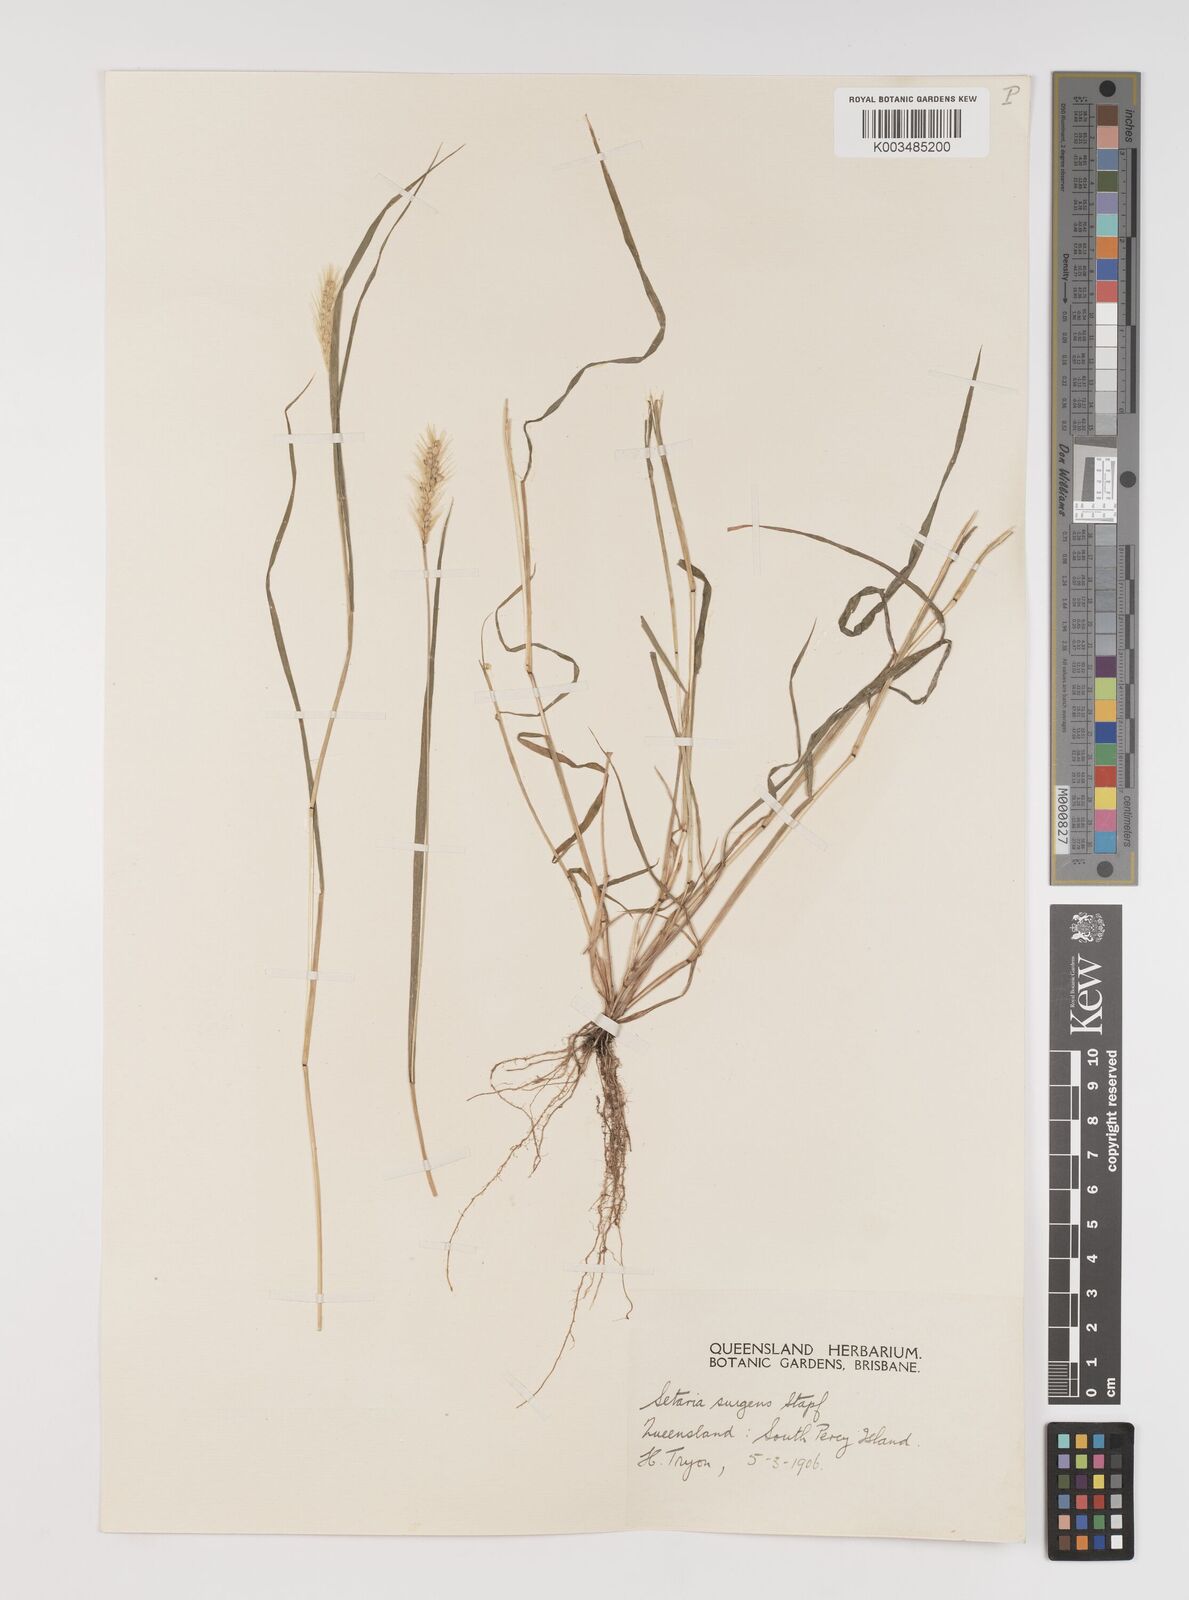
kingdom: Plantae
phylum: Tracheophyta
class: Liliopsida
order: Poales
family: Poaceae
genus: Setaria
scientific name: Setaria apiculata
